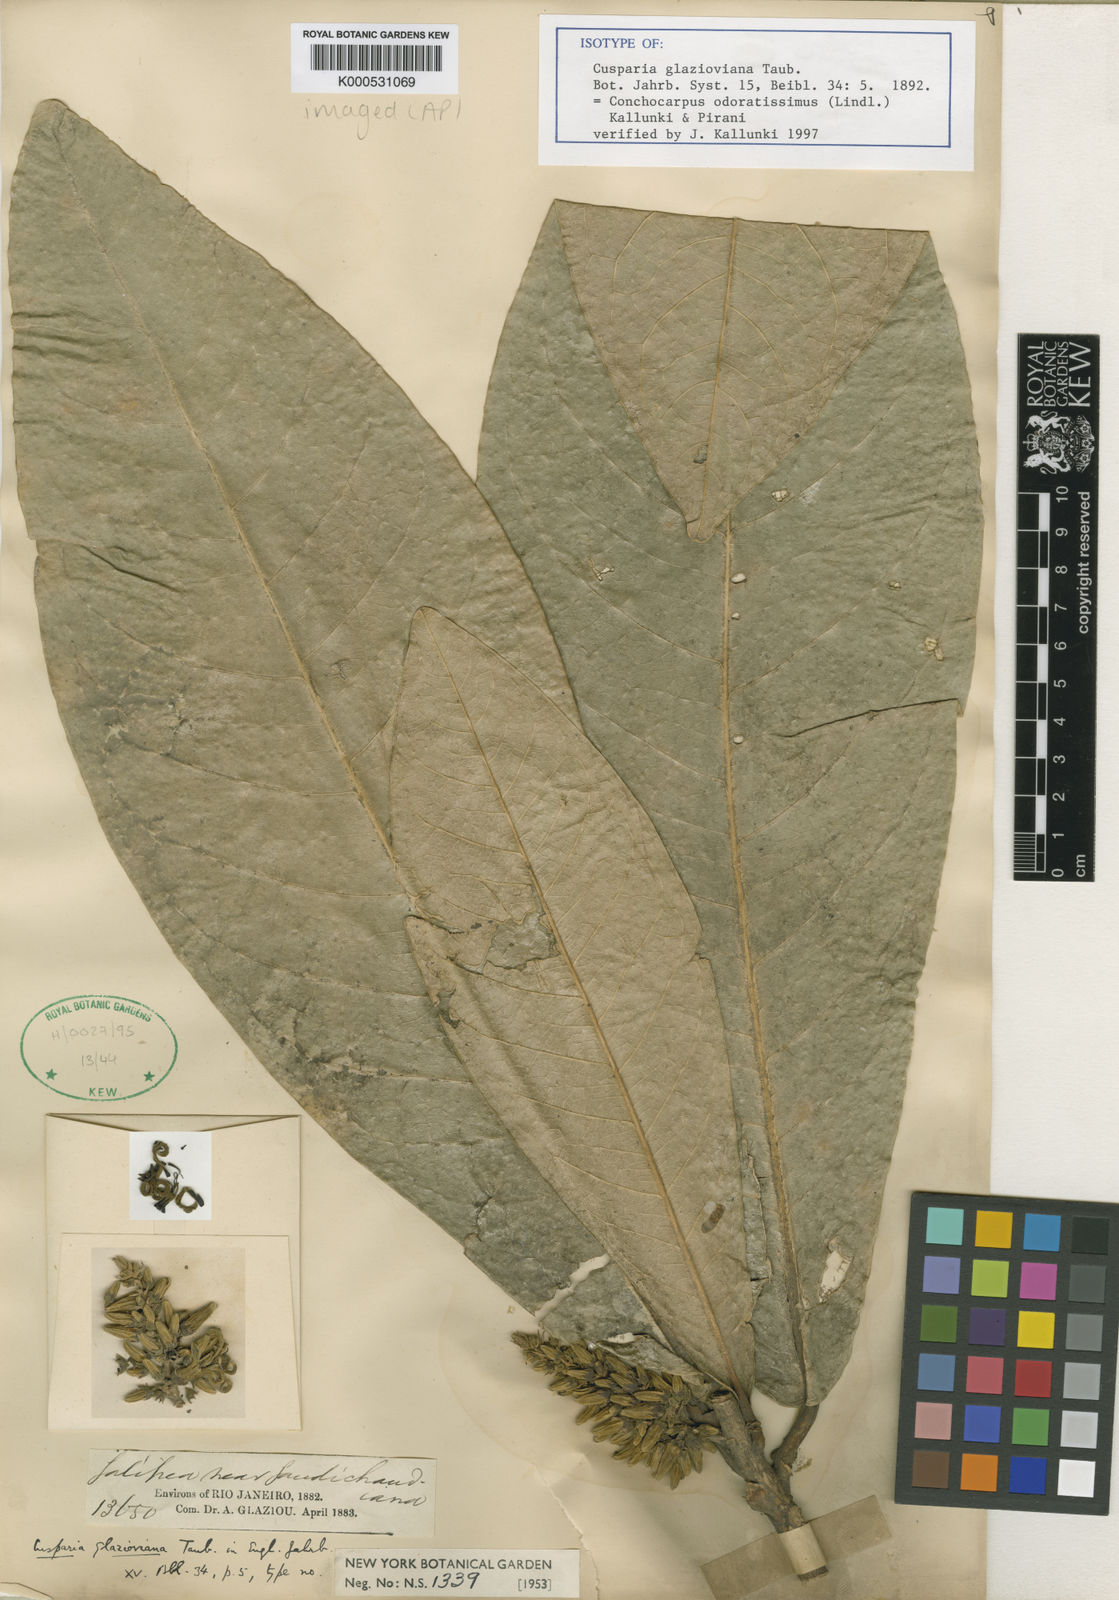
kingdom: Plantae
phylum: Tracheophyta
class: Magnoliopsida
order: Sapindales
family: Rutaceae
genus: Conchocarpus
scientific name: Conchocarpus odoratissimus
